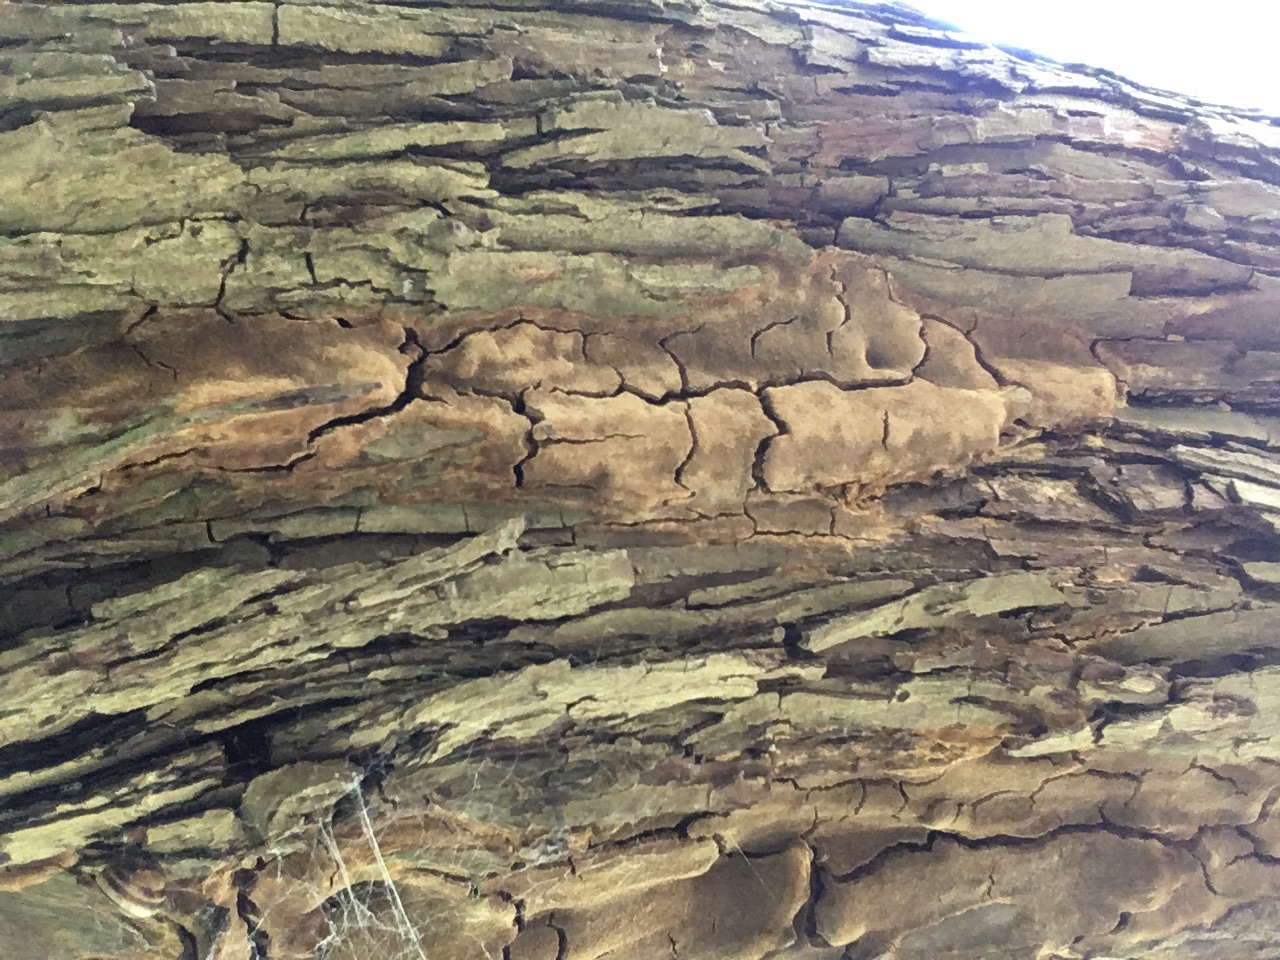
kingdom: Fungi
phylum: Basidiomycota
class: Agaricomycetes
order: Hymenochaetales
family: Hymenochaetaceae
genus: Fuscoporia
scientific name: Fuscoporia ferruginosa
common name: rustbrun ildporesvamp
